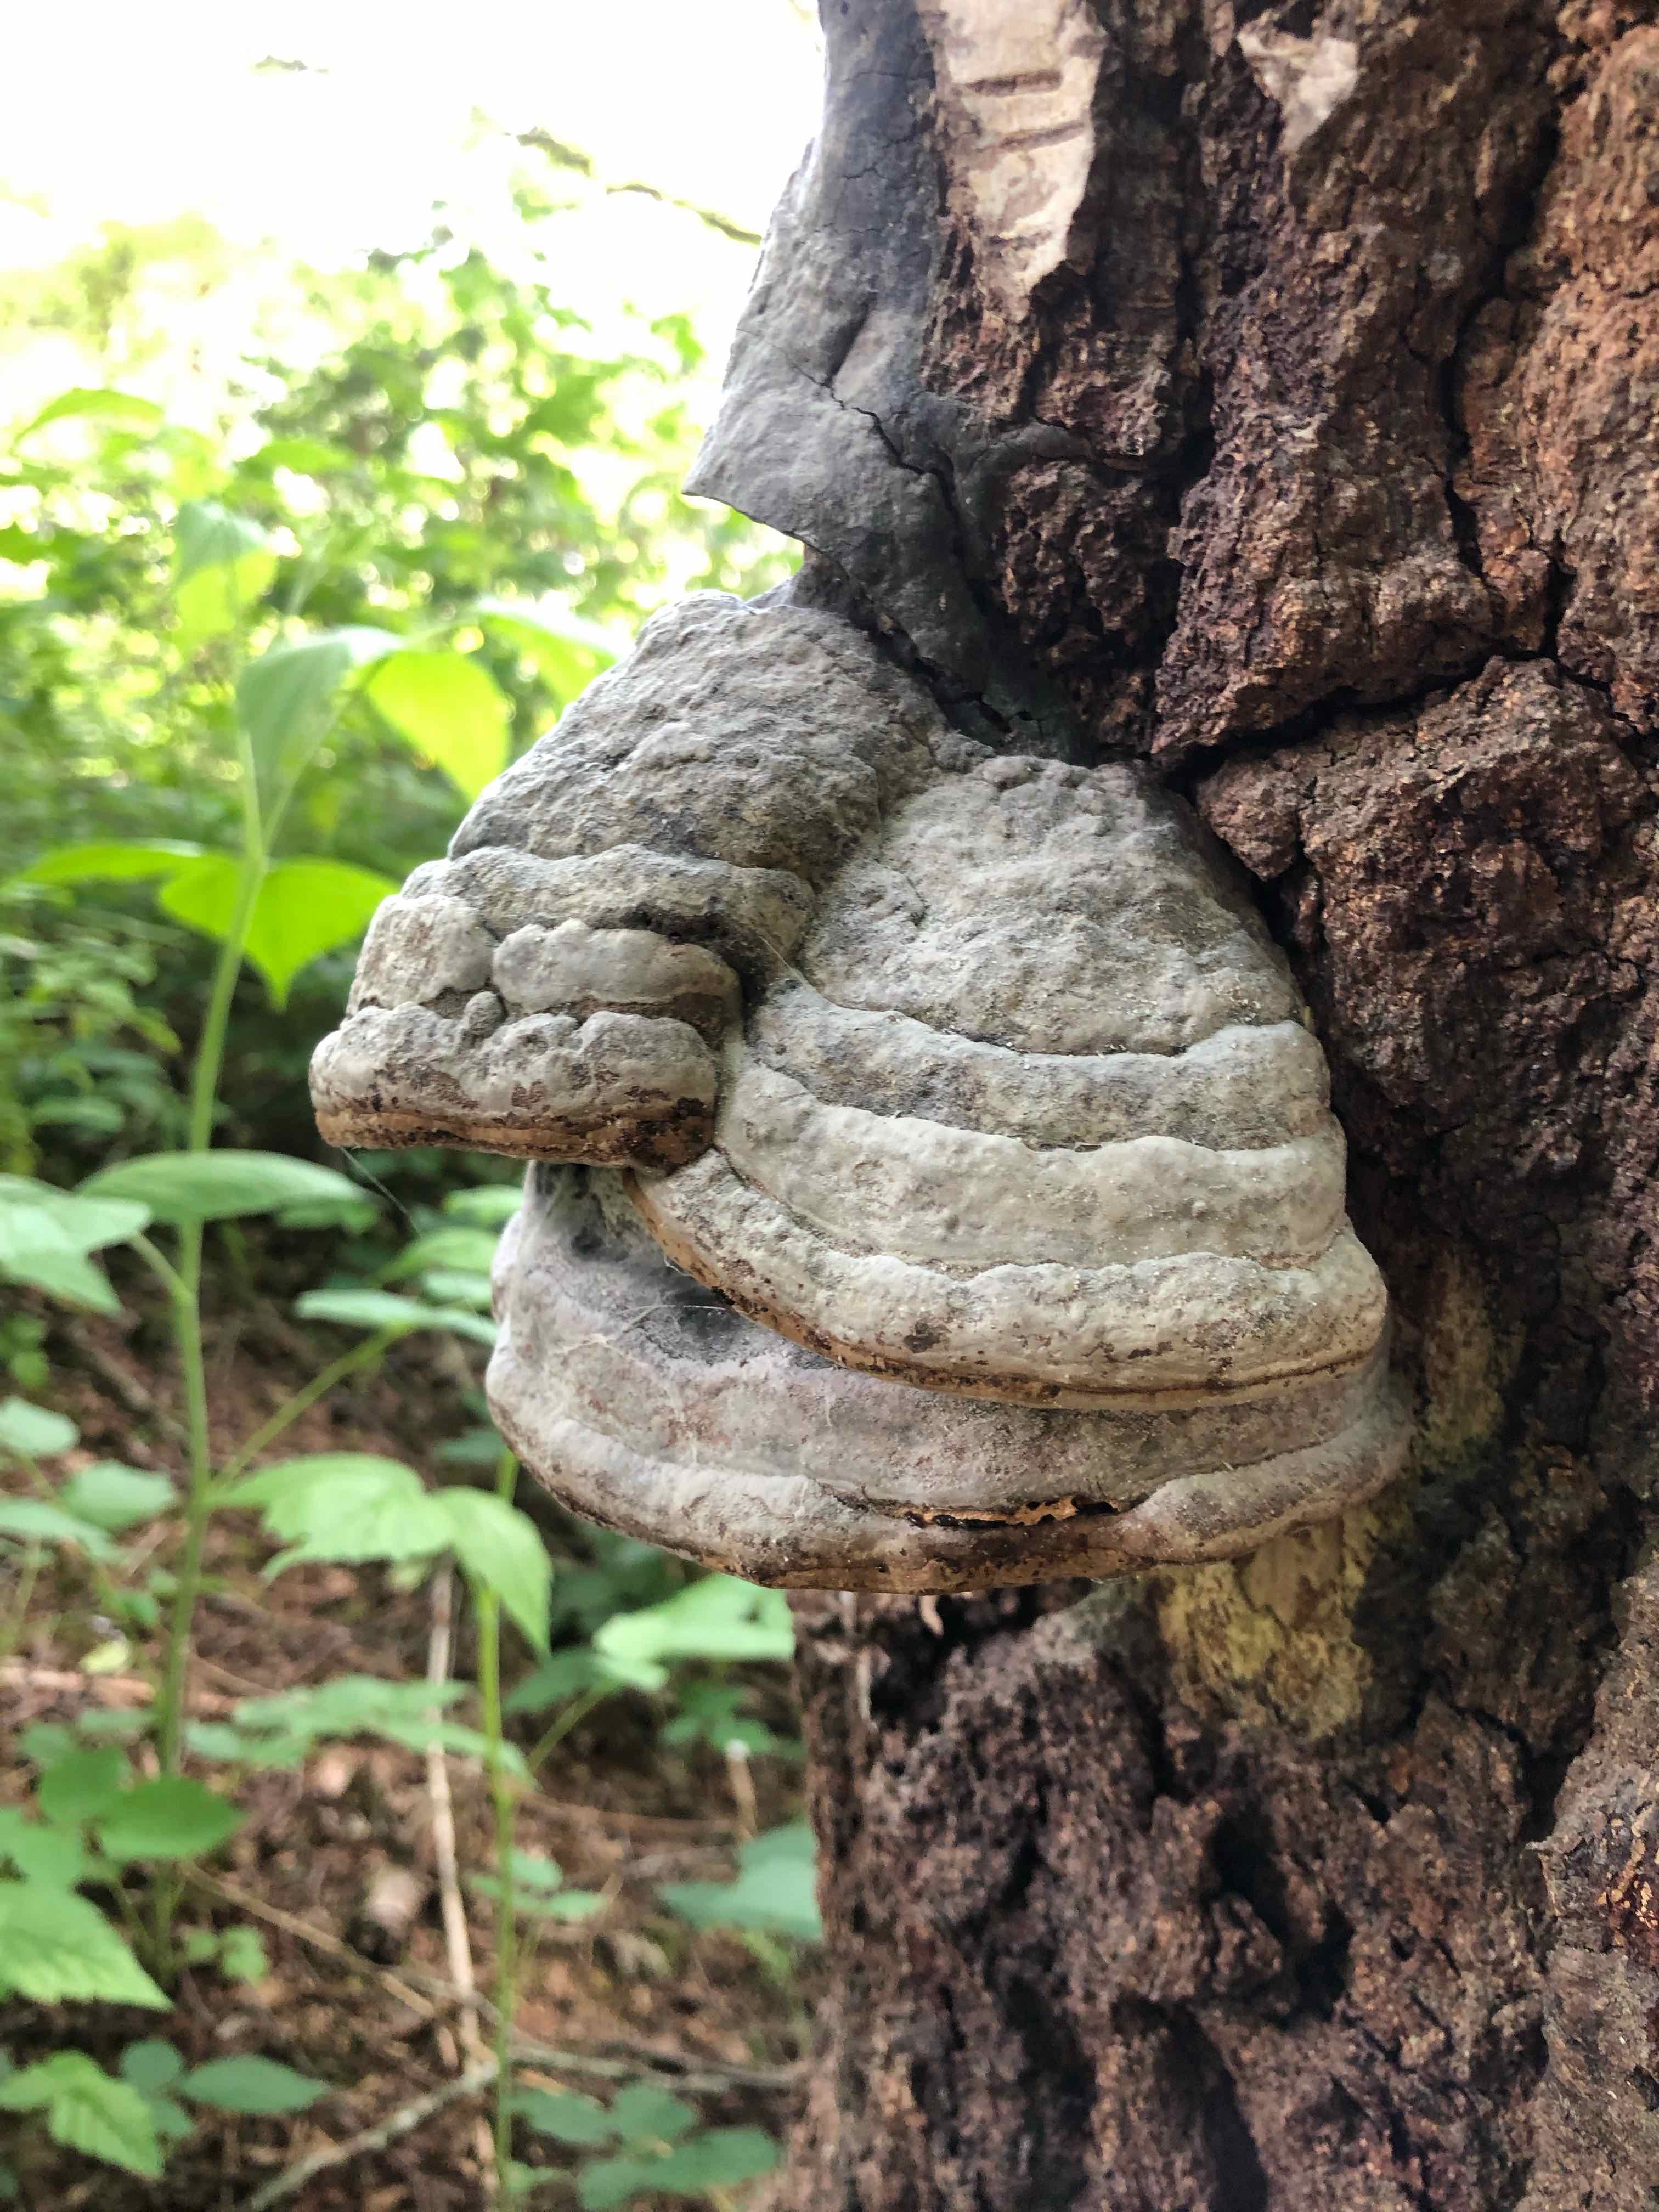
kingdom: Fungi
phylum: Basidiomycota
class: Agaricomycetes
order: Polyporales
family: Polyporaceae
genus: Fomes
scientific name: Fomes fomentarius
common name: tøndersvamp
